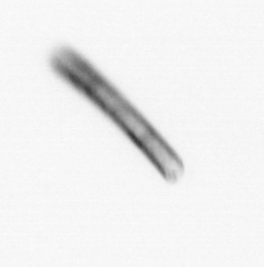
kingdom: Chromista
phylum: Ochrophyta
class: Bacillariophyceae
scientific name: Bacillariophyceae
